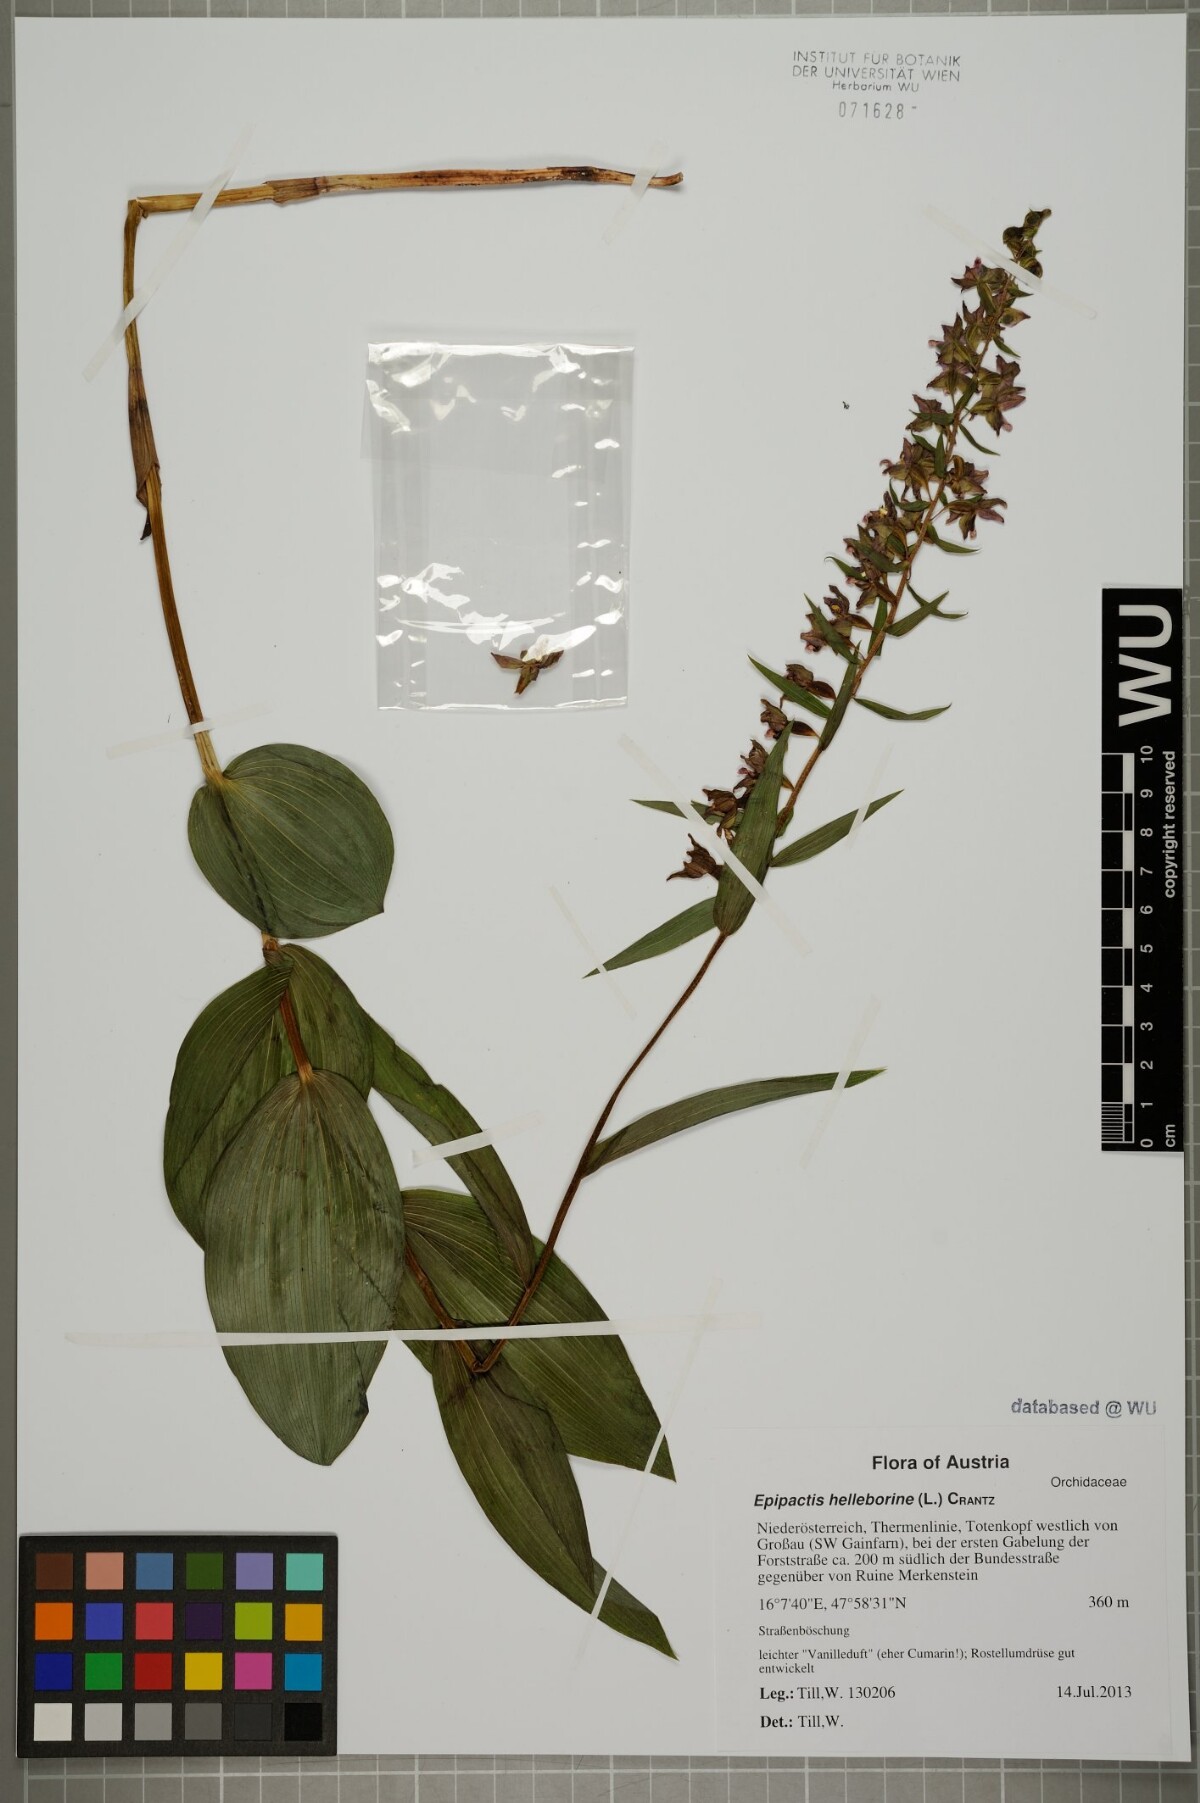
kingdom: Plantae
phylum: Tracheophyta
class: Liliopsida
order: Asparagales
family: Orchidaceae
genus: Epipactis
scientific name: Epipactis helleborine
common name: Broad-leaved helleborine
